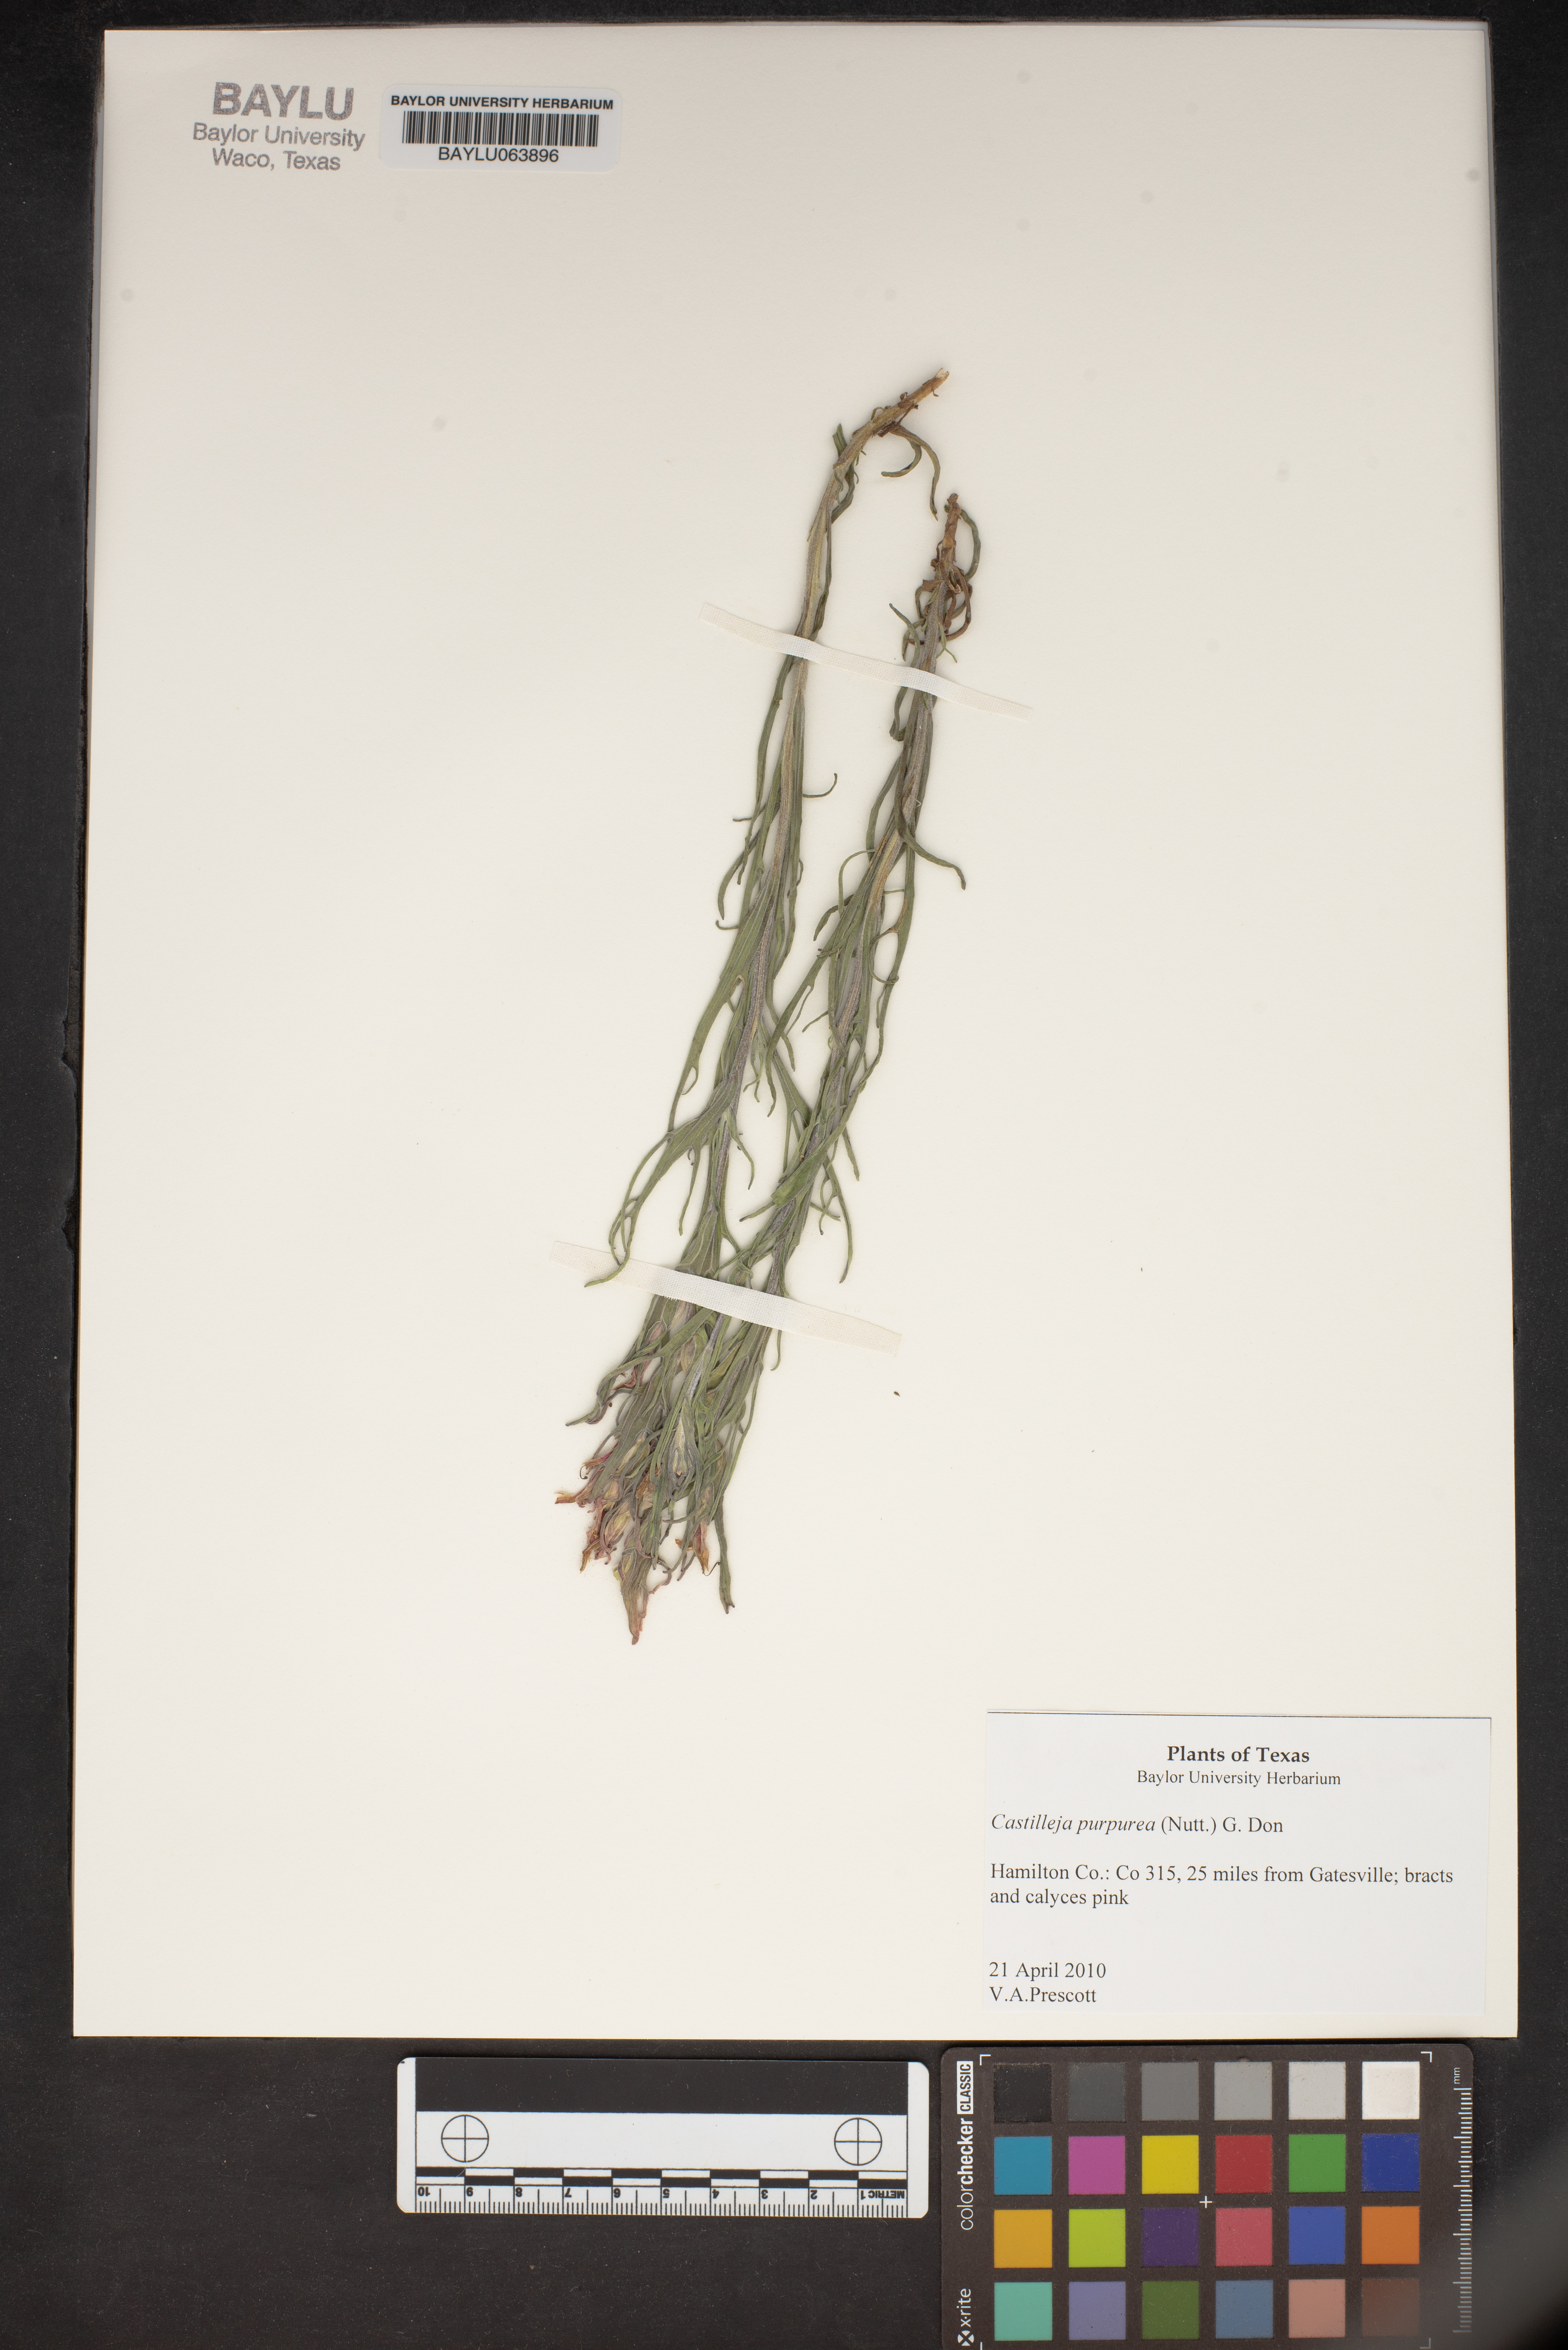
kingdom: Plantae
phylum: Tracheophyta
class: Magnoliopsida
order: Lamiales
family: Orobanchaceae
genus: Castilleja
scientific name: Castilleja purpurea
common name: Plains paintbrush
